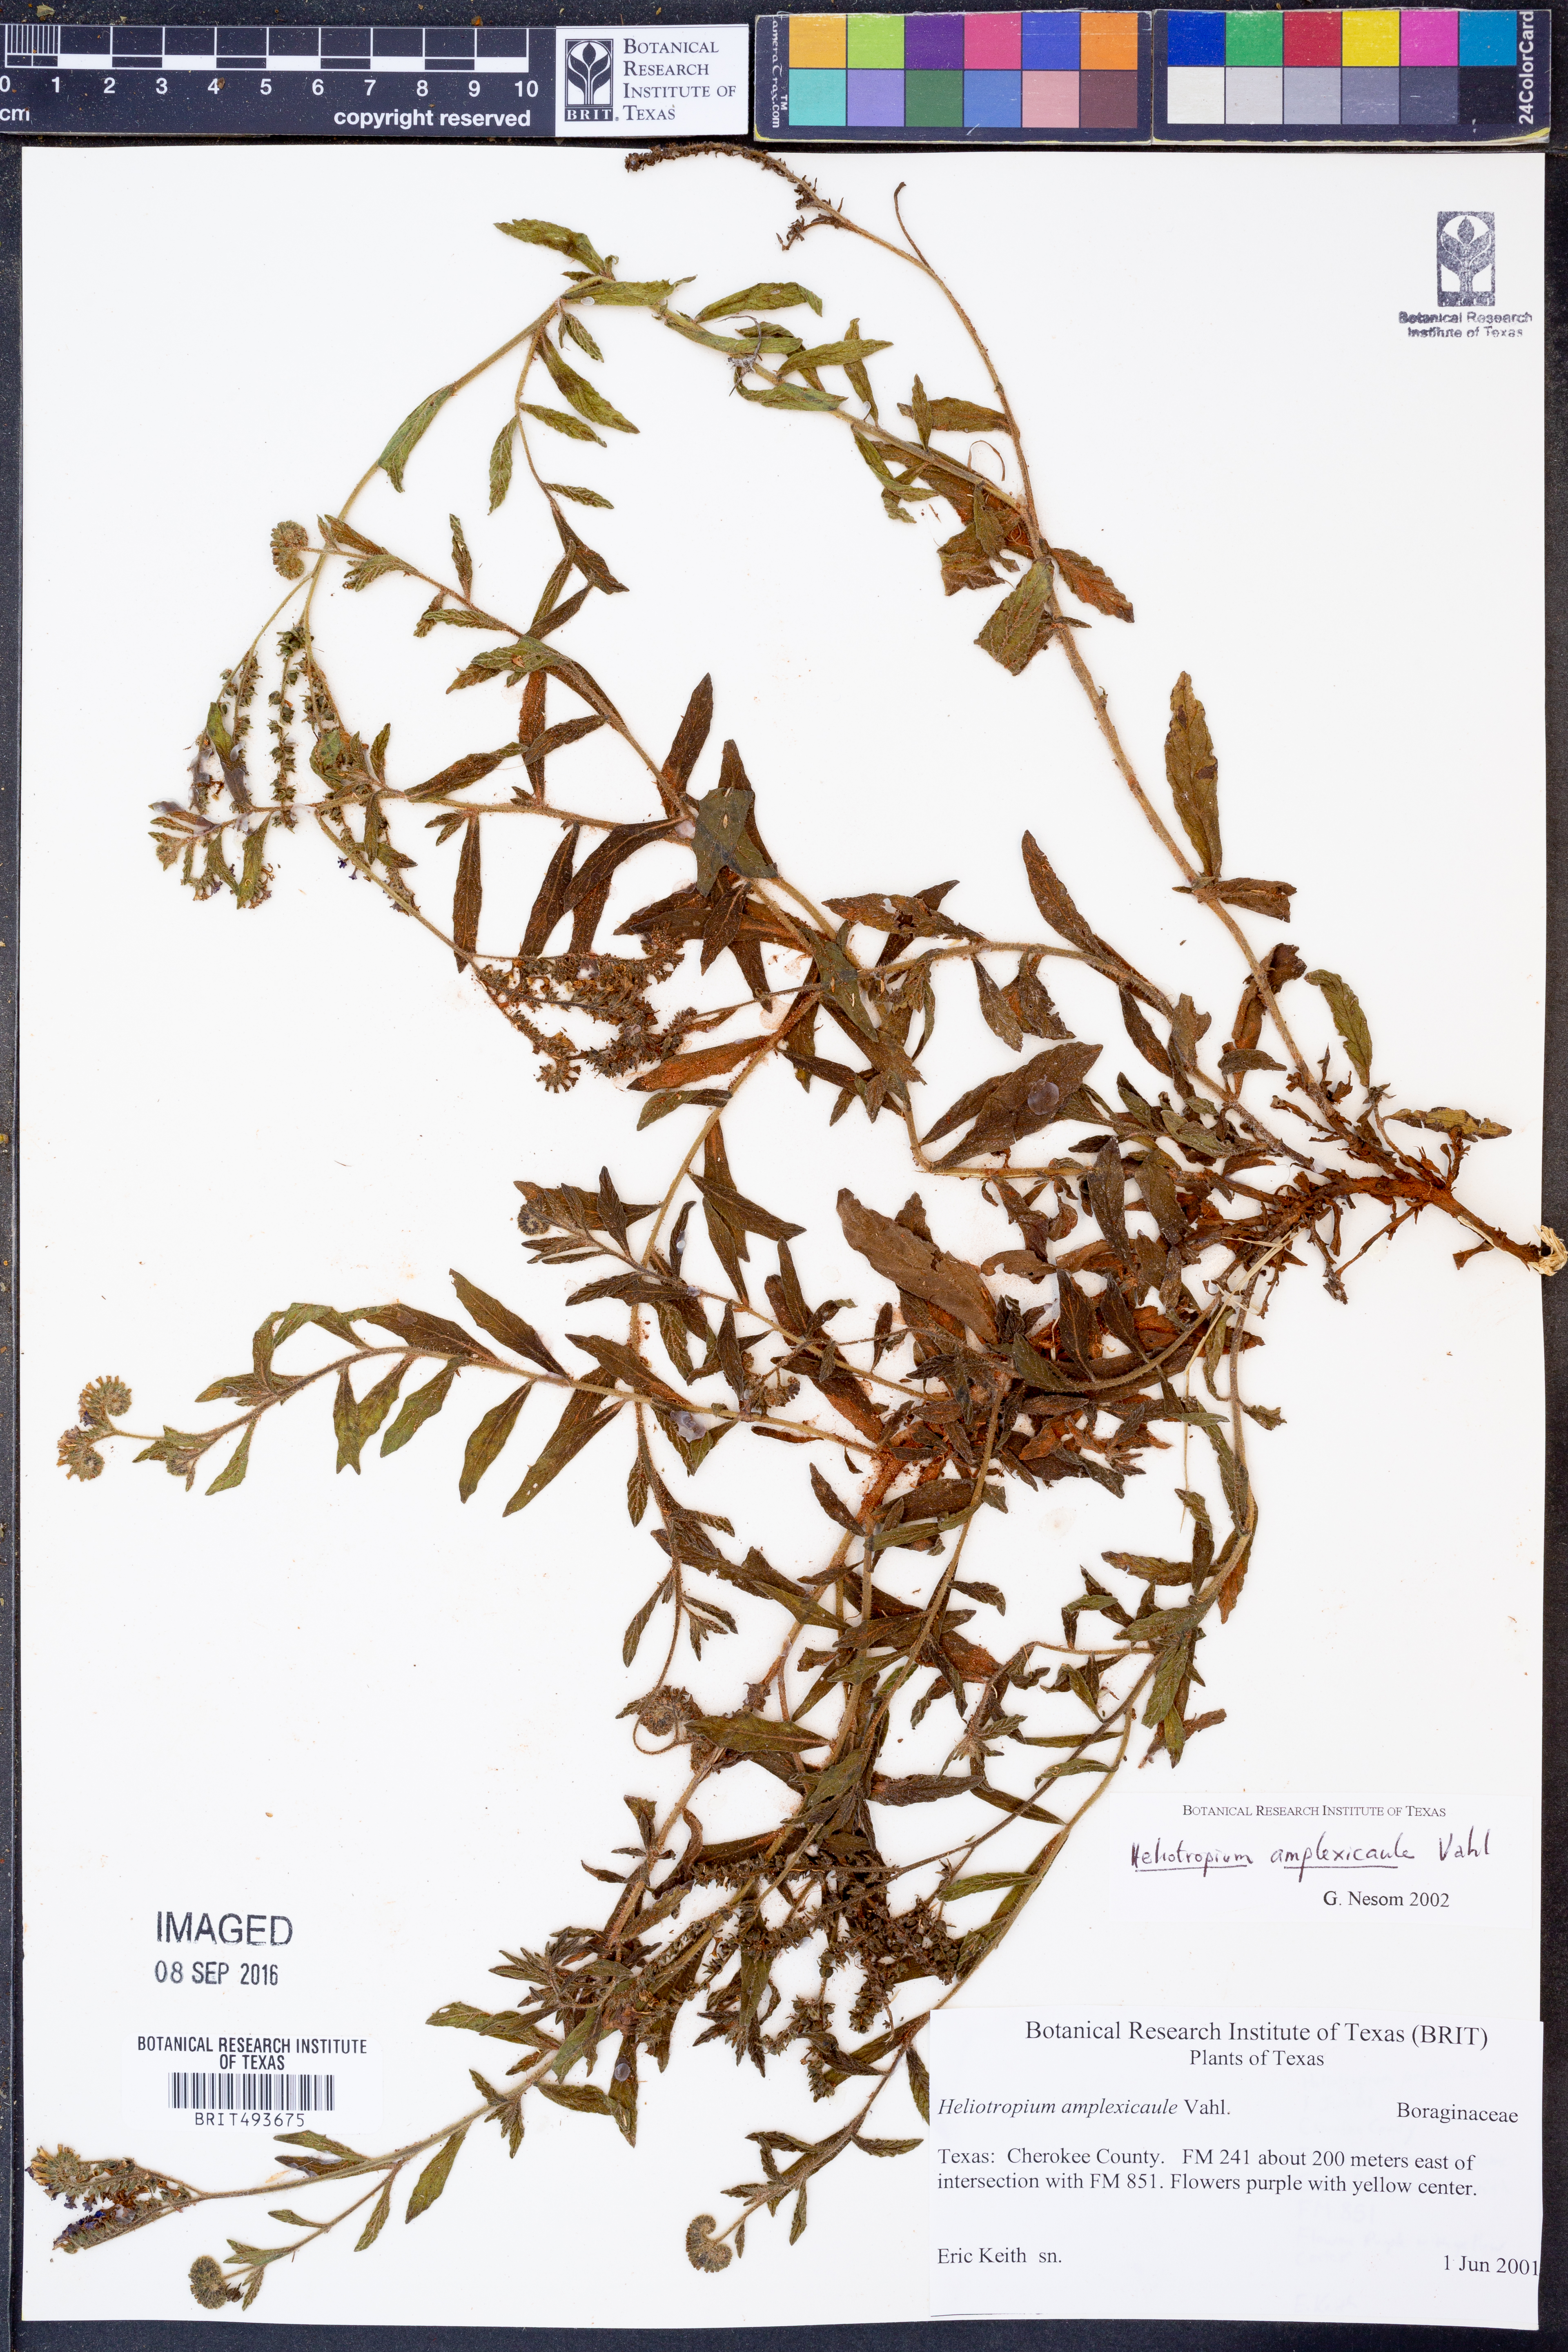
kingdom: Plantae
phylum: Tracheophyta
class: Magnoliopsida
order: Boraginales
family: Heliotropiaceae
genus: Heliotropium
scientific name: Heliotropium amplexicaule
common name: Clasping heliotrope
